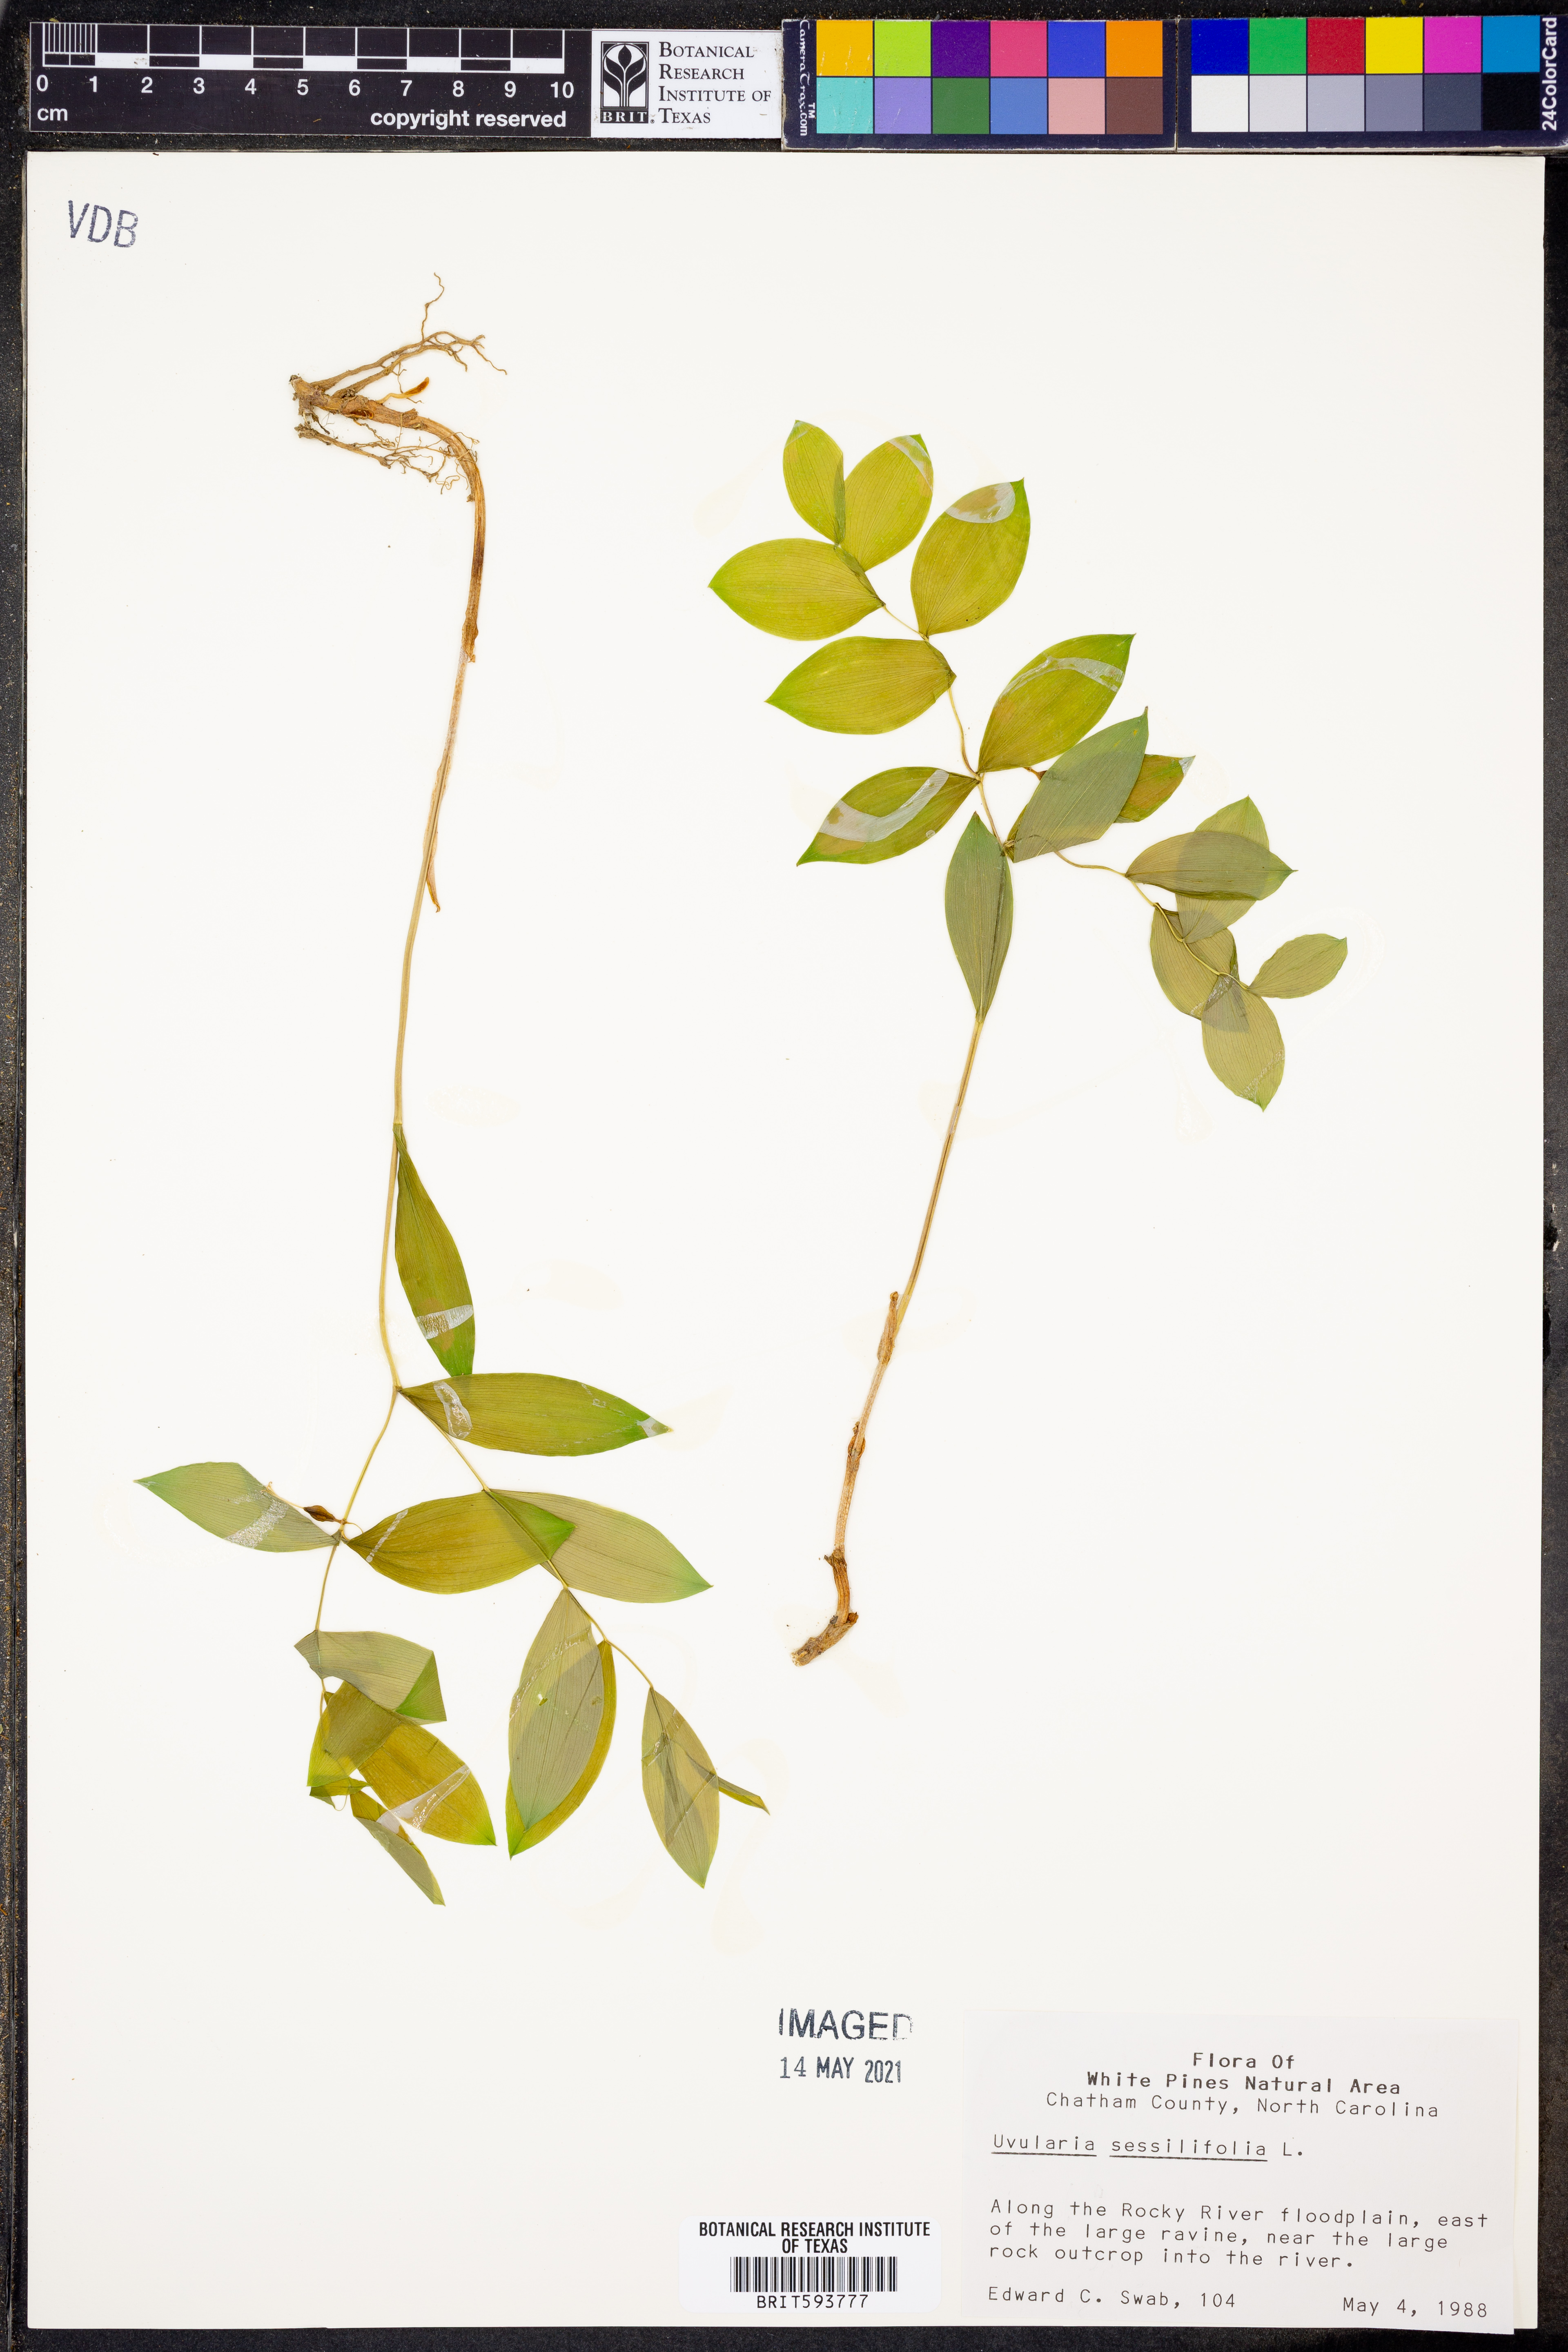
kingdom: Plantae
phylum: Tracheophyta
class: Liliopsida
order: Liliales
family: Colchicaceae
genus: Uvularia
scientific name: Uvularia sessilifolia
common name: Straw-lily
